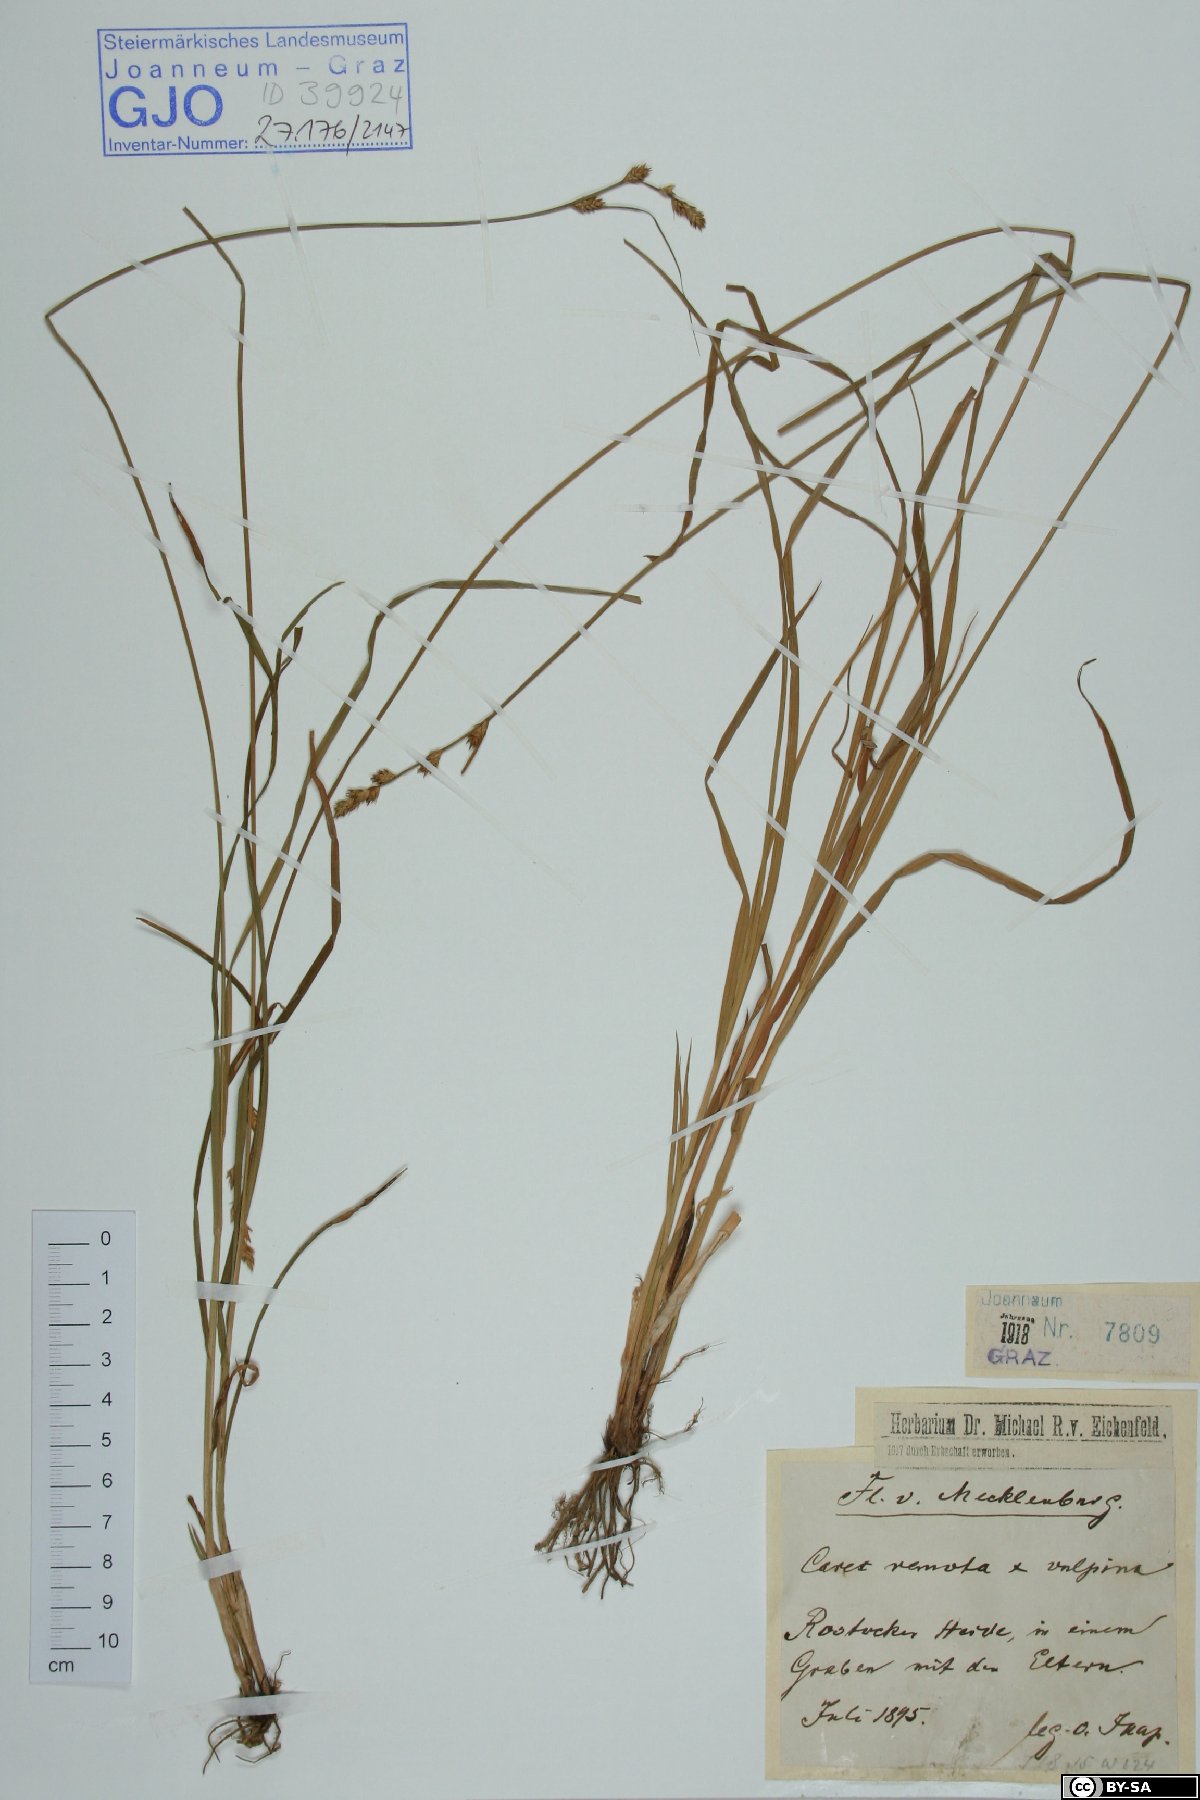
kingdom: Plantae
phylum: Tracheophyta
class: Liliopsida
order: Poales
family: Cyperaceae
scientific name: Cyperaceae
